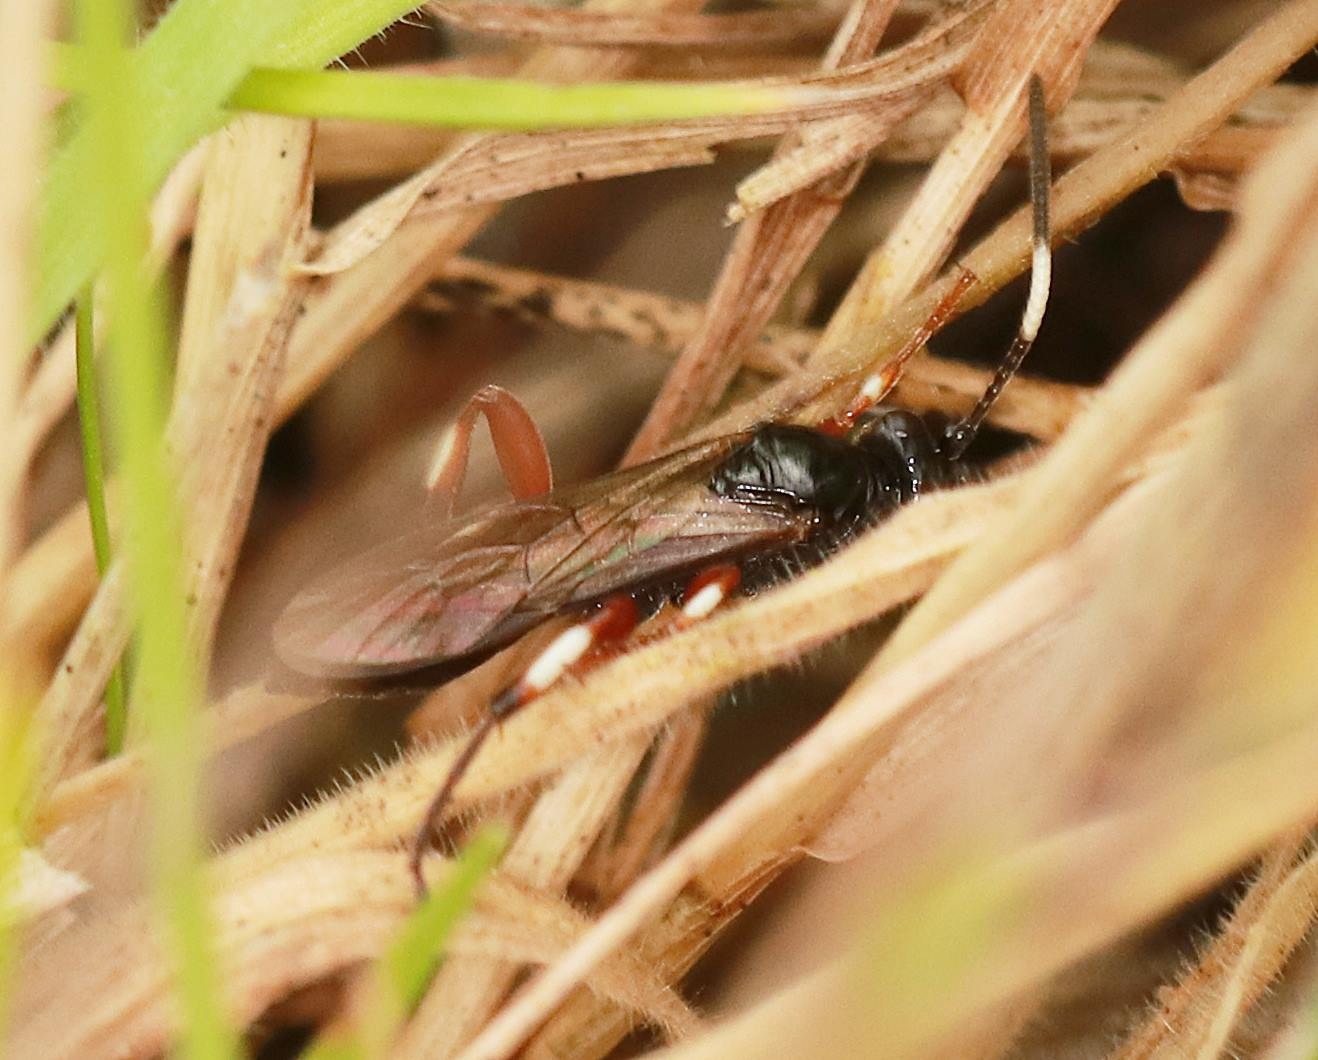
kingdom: Animalia
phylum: Arthropoda
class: Insecta
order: Hymenoptera
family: Ichneumonidae
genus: Cratichneumon
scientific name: Cratichneumon
